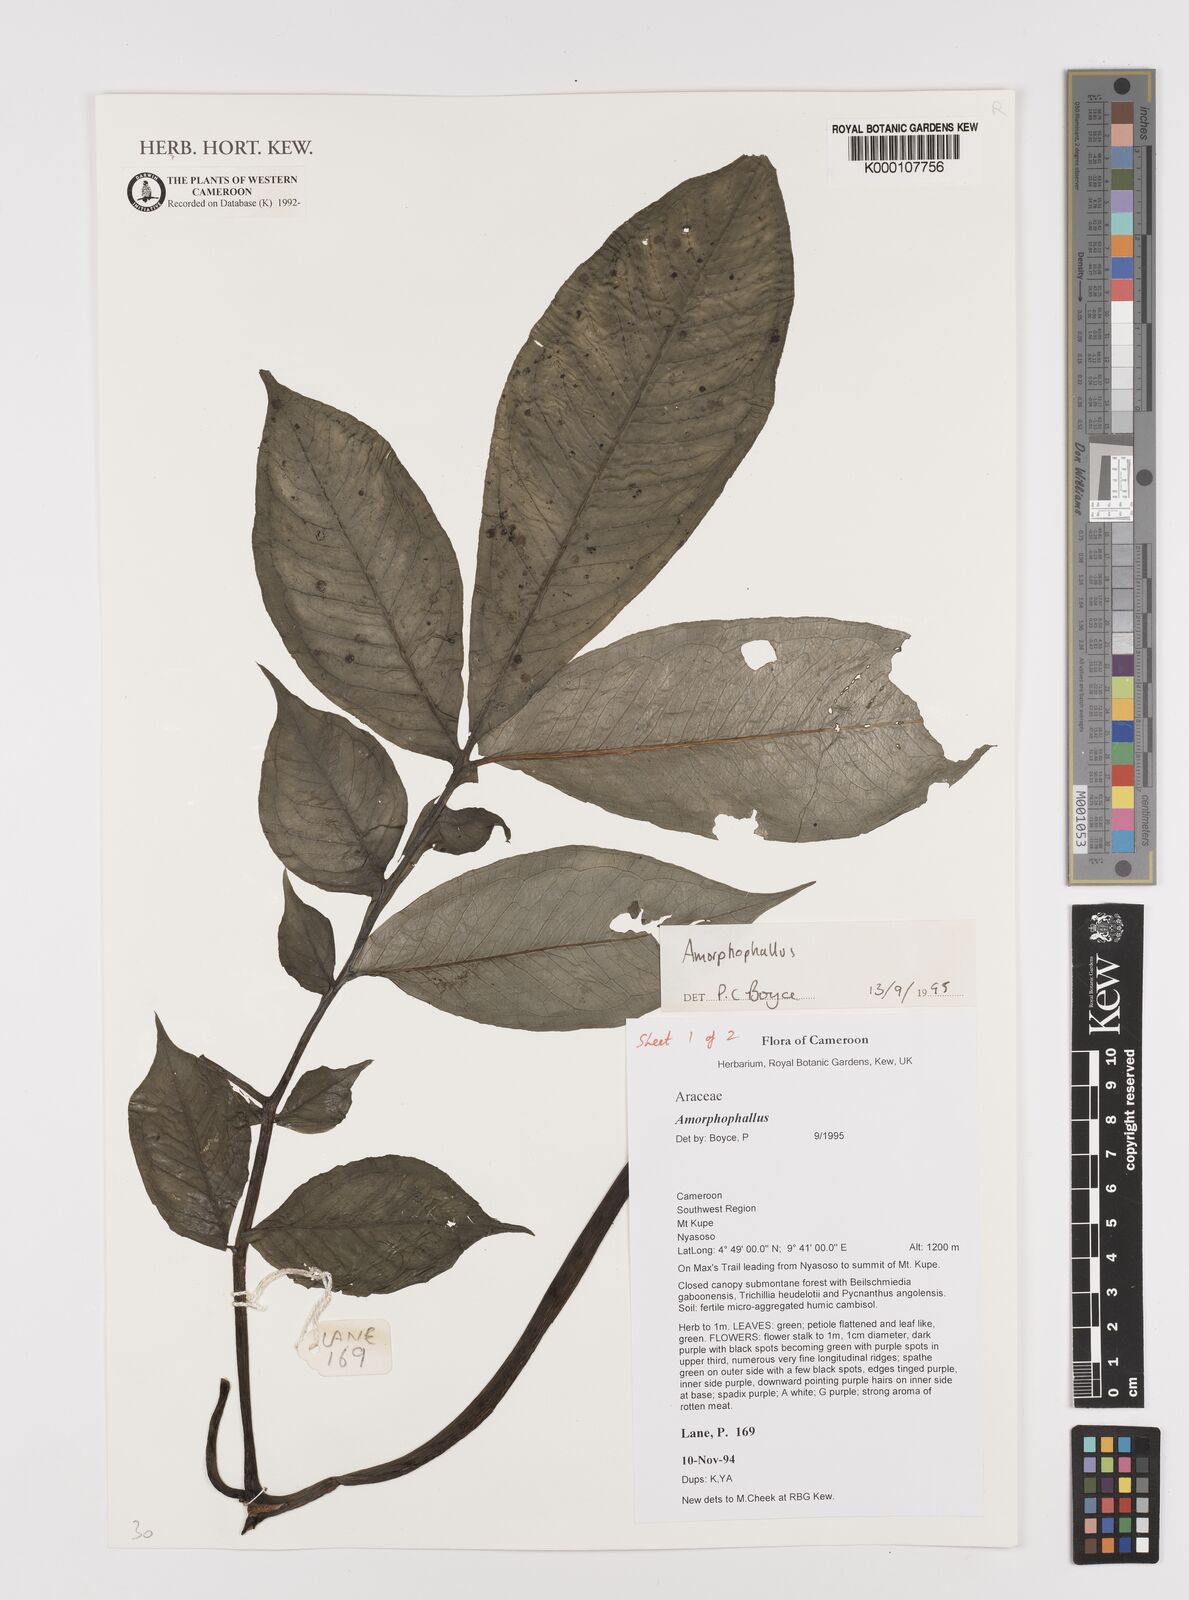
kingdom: Plantae
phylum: Tracheophyta
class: Liliopsida
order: Alismatales
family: Araceae
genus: Amorphophallus
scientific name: Amorphophallus
